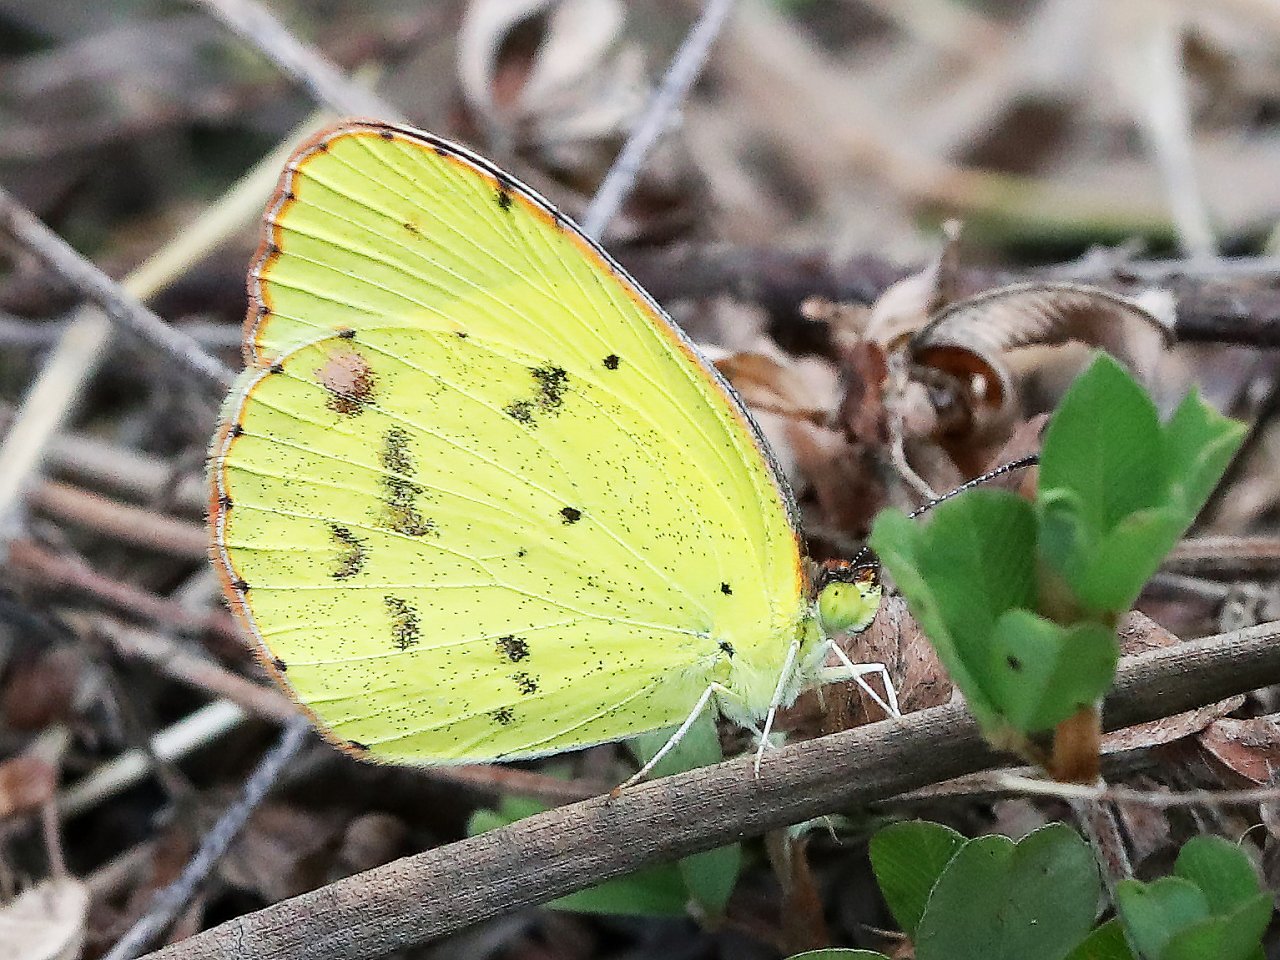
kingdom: Animalia
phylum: Arthropoda
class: Insecta
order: Lepidoptera
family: Pieridae
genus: Pyrisitia
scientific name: Pyrisitia lisa
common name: Little Yellow
